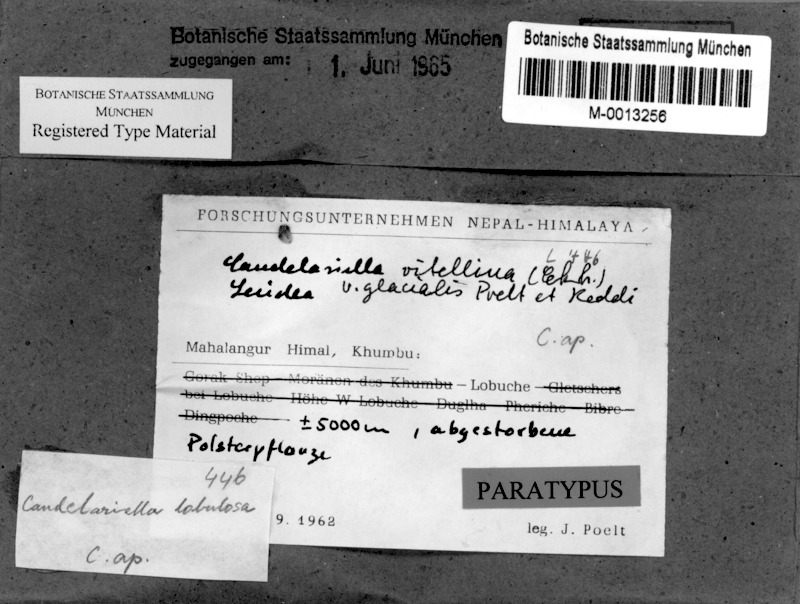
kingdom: Fungi
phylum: Ascomycota
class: Candelariomycetes
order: Candelariales
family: Candelariaceae
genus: Candelariella
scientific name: Candelariella vitellina
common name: Common goldspeck
